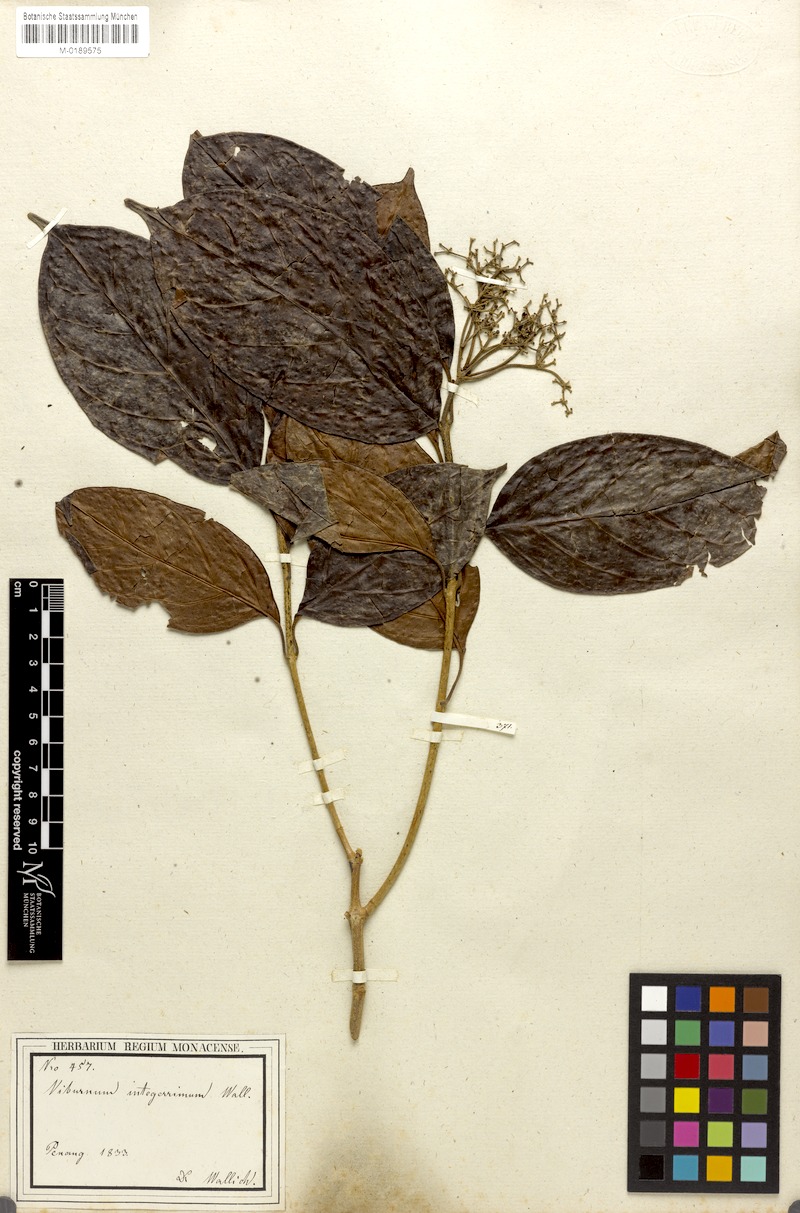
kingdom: Plantae
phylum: Tracheophyta
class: Magnoliopsida
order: Dipsacales
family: Viburnaceae
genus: Viburnum
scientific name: Viburnum sambucinum
